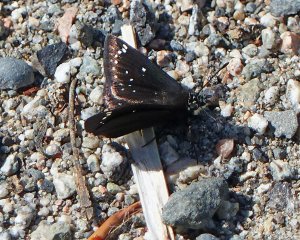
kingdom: Animalia
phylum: Arthropoda
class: Insecta
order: Lepidoptera
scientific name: Lepidoptera
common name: Butterflies
